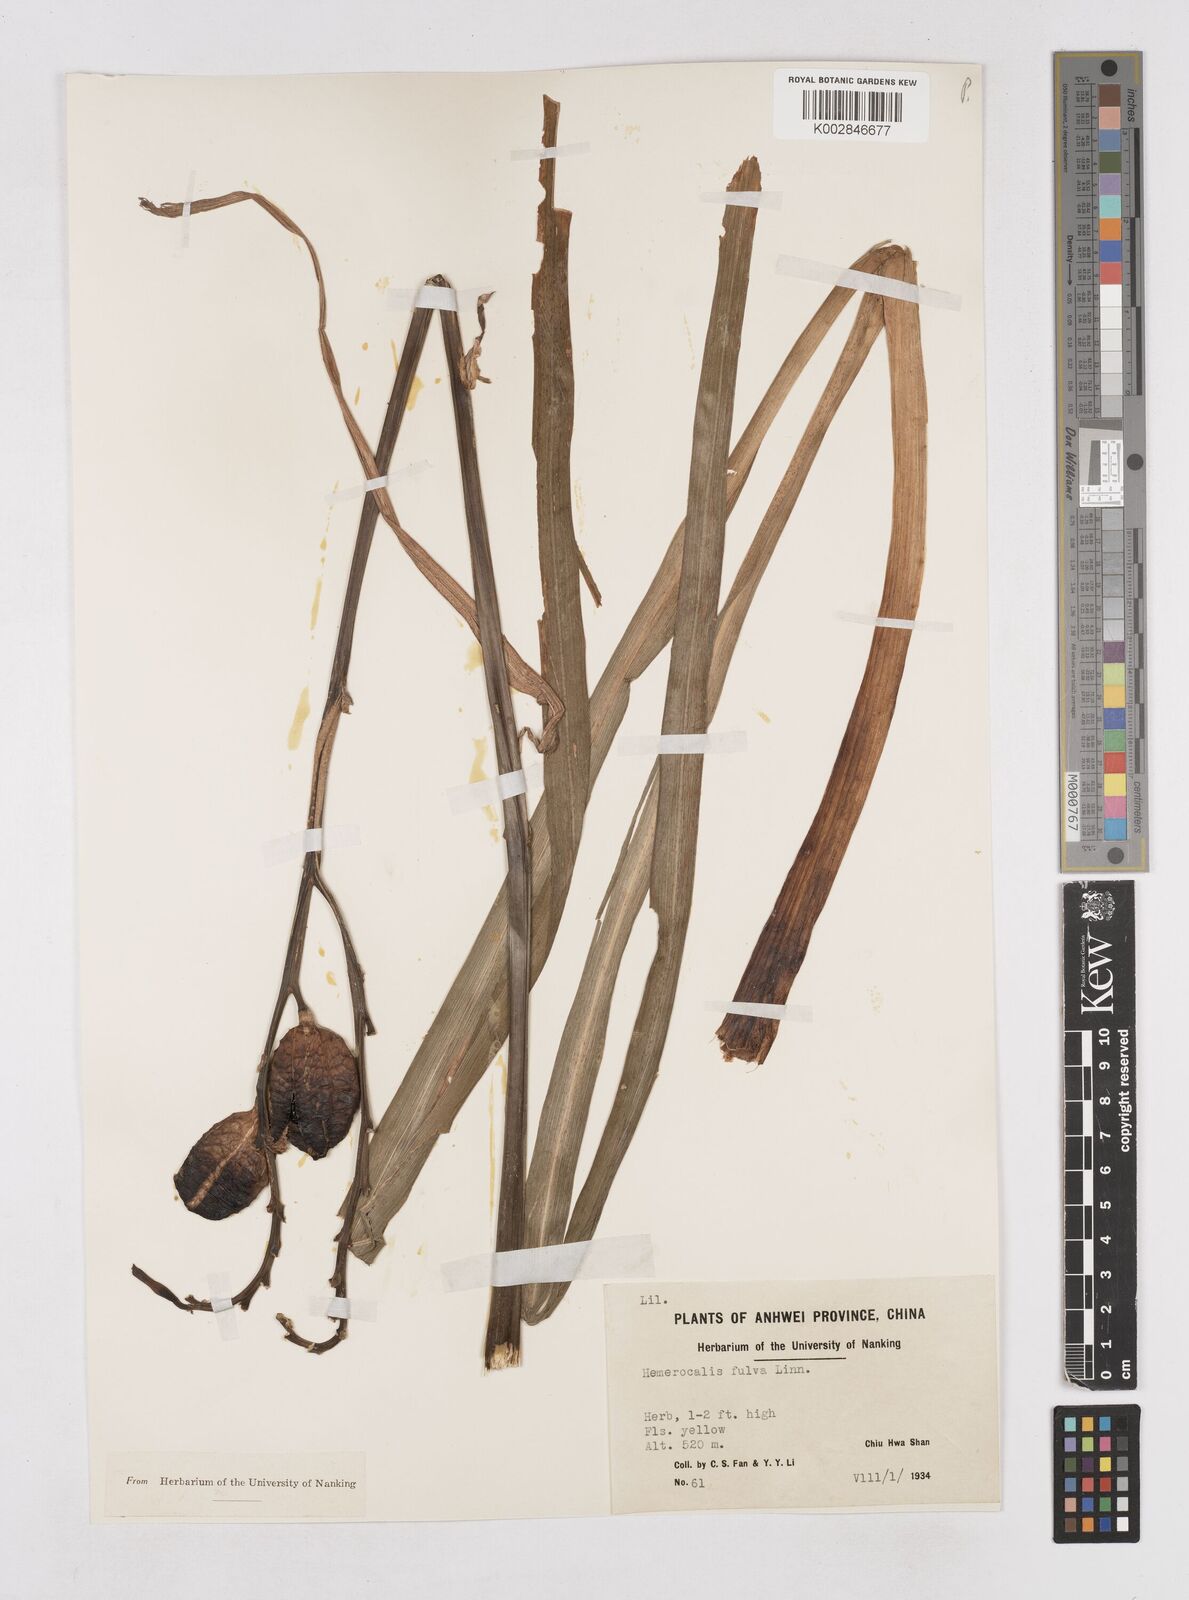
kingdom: Plantae
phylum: Tracheophyta
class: Liliopsida
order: Asparagales
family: Asphodelaceae
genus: Hemerocallis
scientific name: Hemerocallis fulva
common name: Orange day-lily
